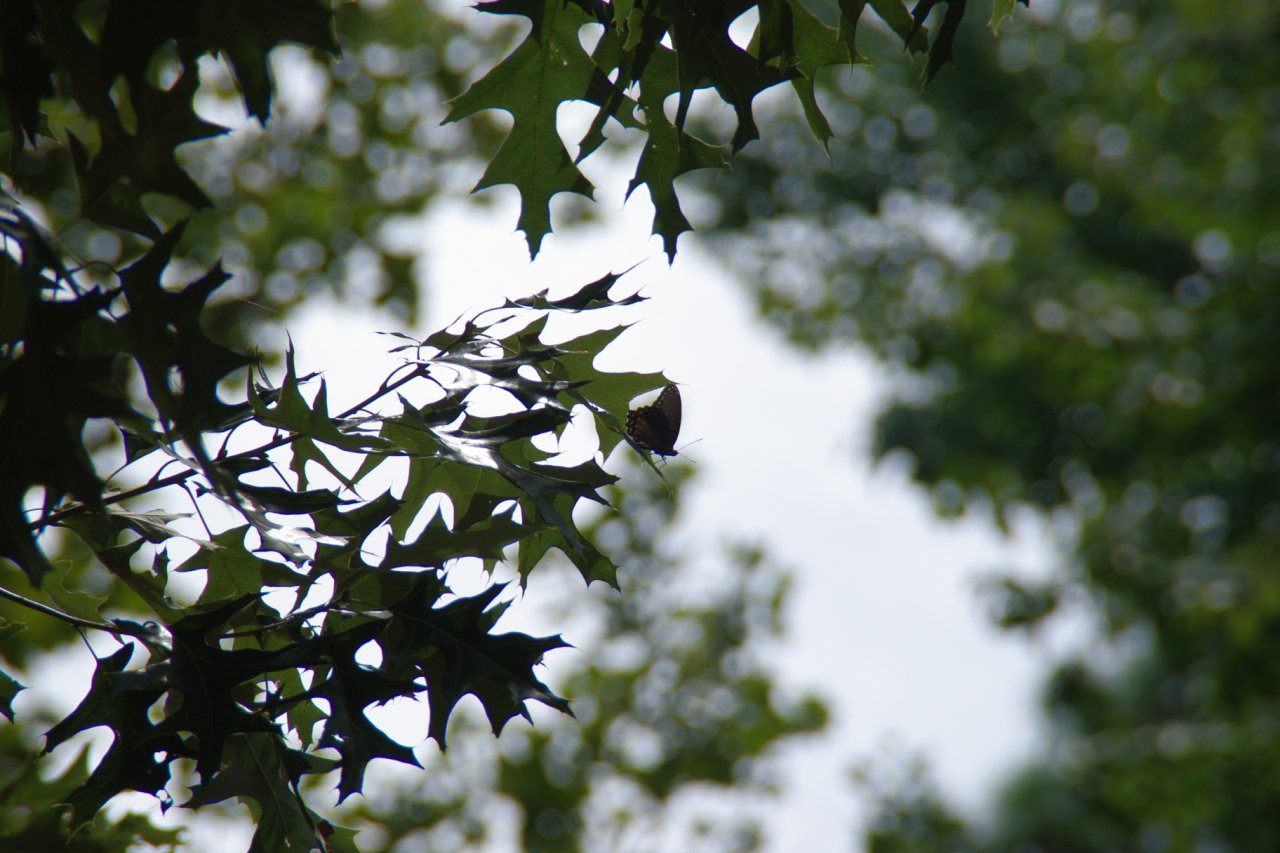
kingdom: Animalia
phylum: Arthropoda
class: Insecta
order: Lepidoptera
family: Nymphalidae
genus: Limenitis
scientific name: Limenitis astyanax
